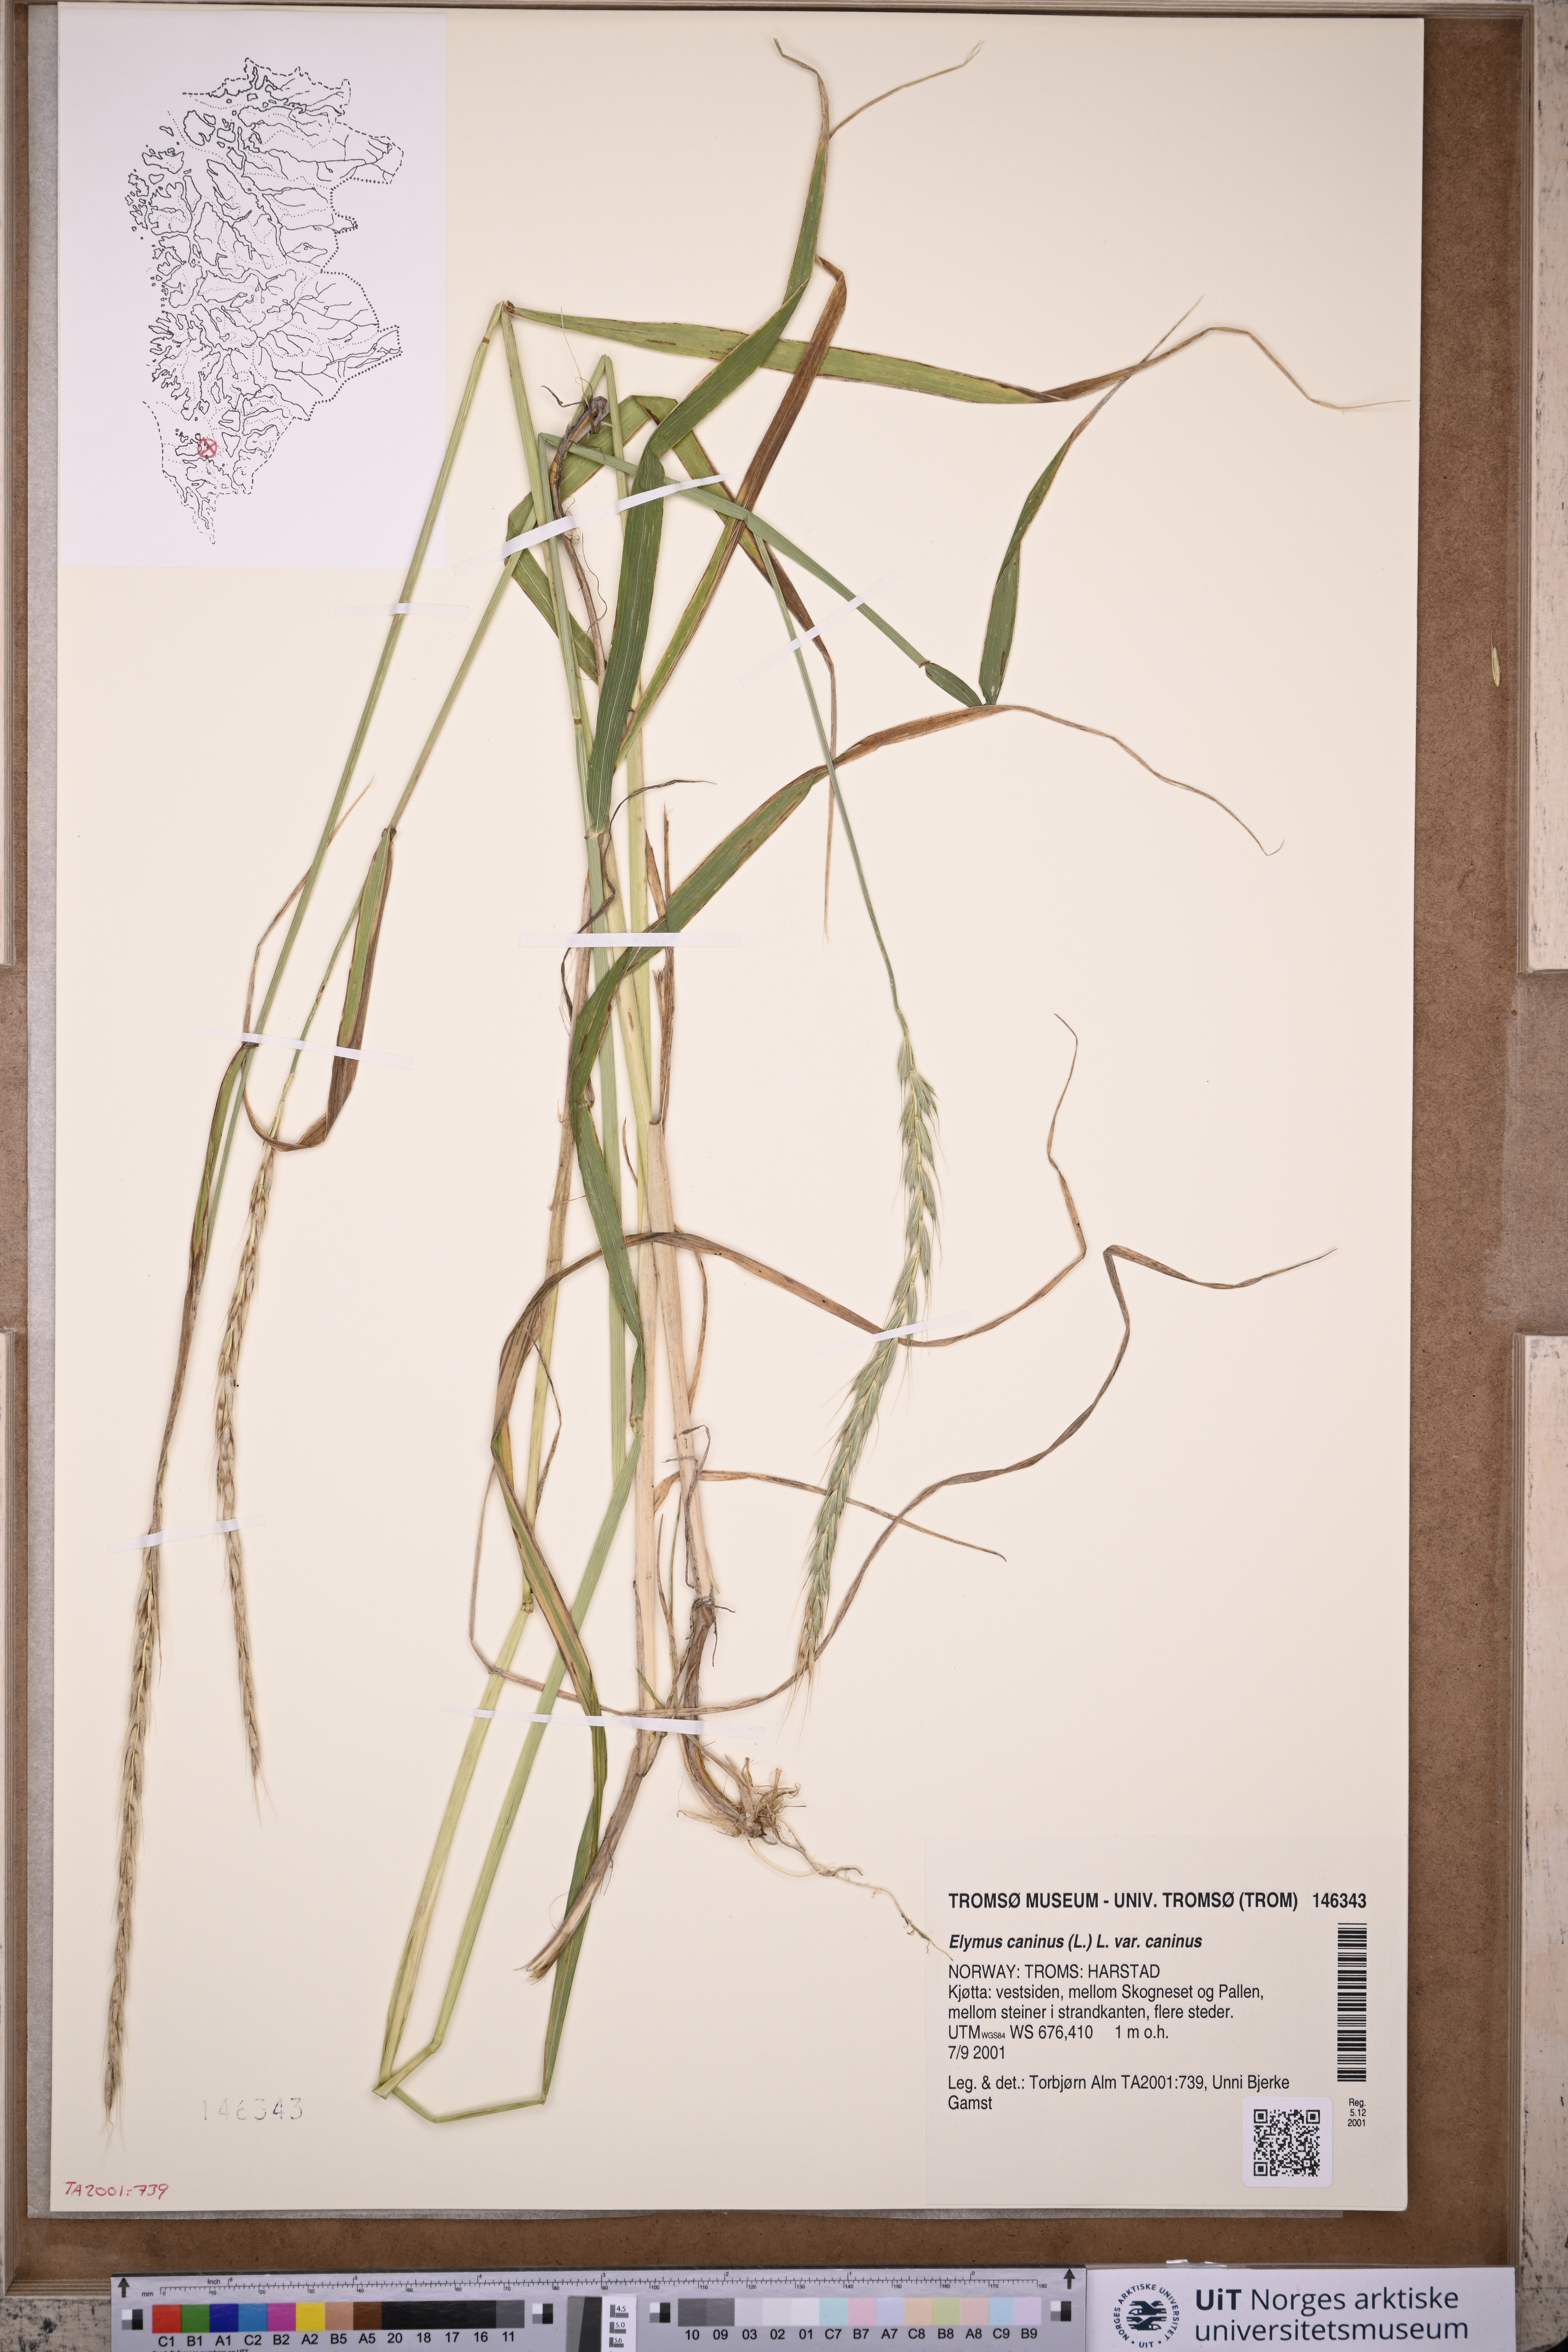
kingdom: Plantae
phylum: Tracheophyta
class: Liliopsida
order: Poales
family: Poaceae
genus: Elymus
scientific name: Elymus caninus
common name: Bearded couch
